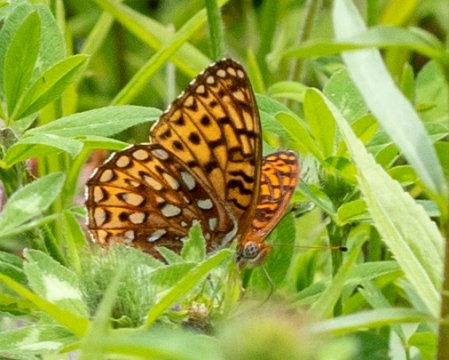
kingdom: Animalia
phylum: Arthropoda
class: Insecta
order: Lepidoptera
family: Nymphalidae
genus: Speyeria
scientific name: Speyeria atlantis
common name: Atlantis Fritillary
